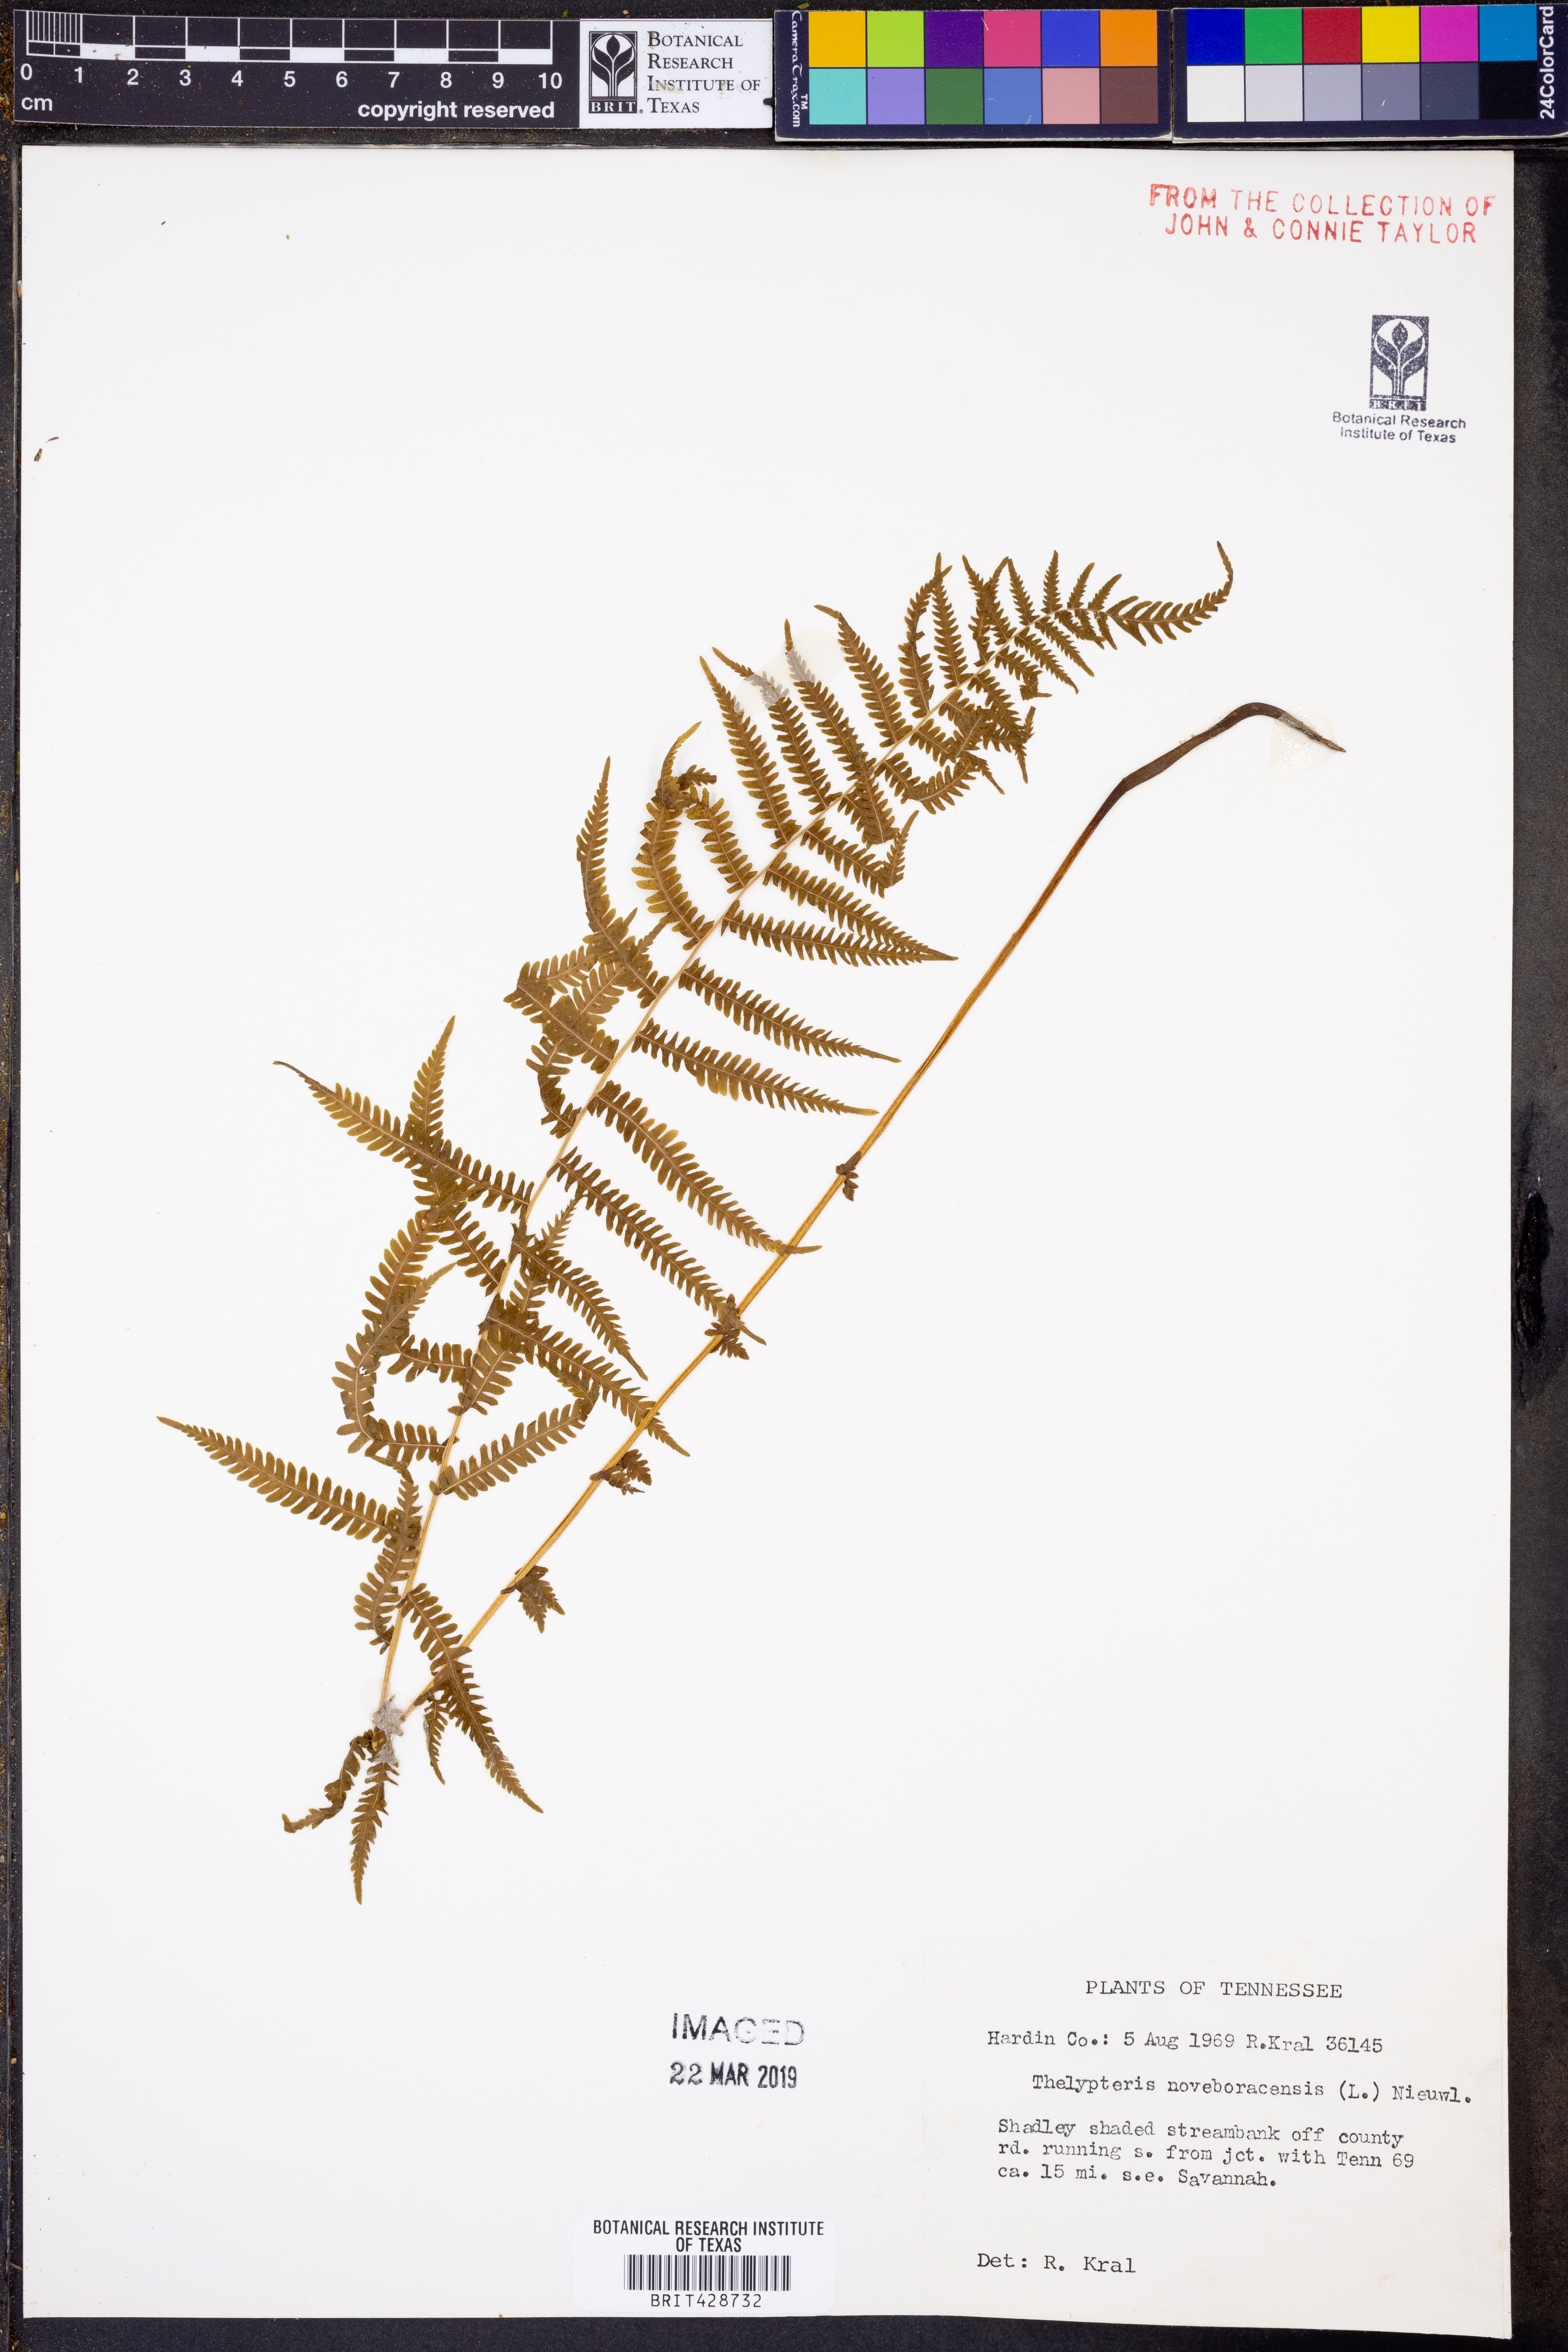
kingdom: Plantae
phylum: Tracheophyta
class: Polypodiopsida
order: Polypodiales
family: Thelypteridaceae
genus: Amauropelta
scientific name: Amauropelta noveboracensis
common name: New york fern
